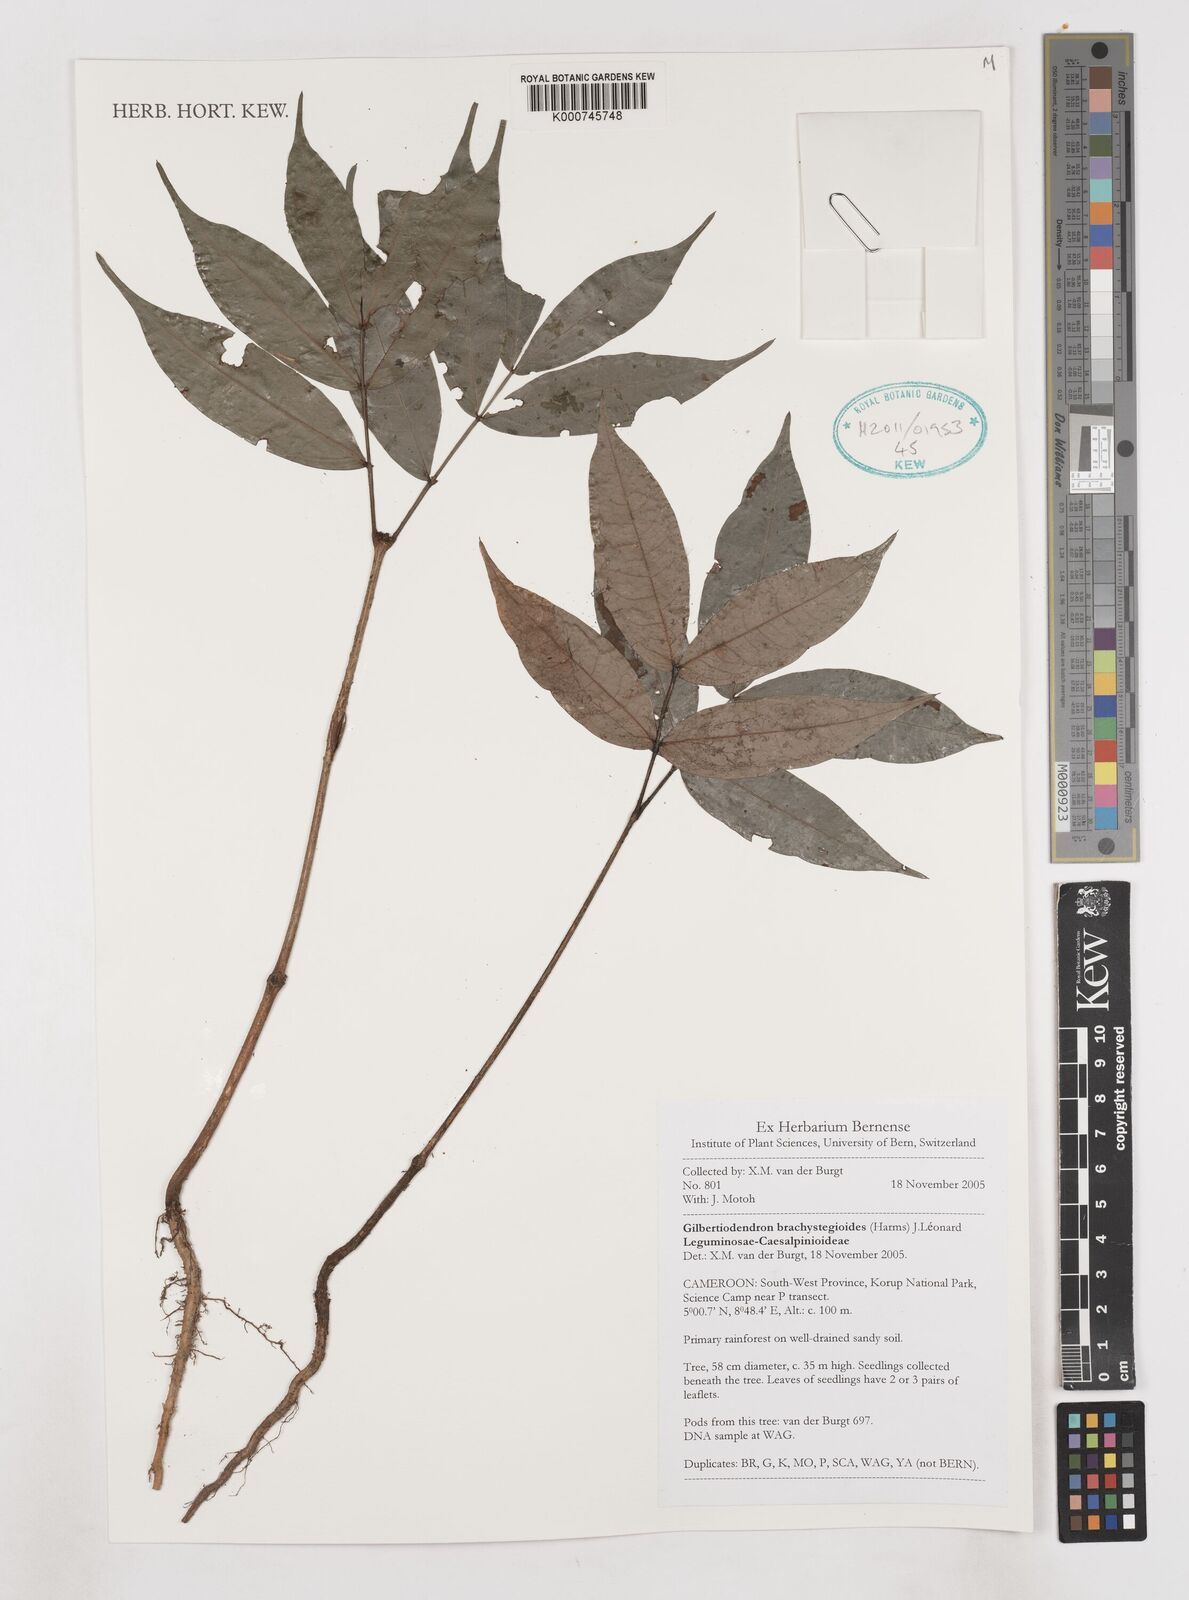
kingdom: Plantae
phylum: Tracheophyta
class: Magnoliopsida
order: Fabales
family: Fabaceae
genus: Gilbertiodendron
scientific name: Gilbertiodendron
